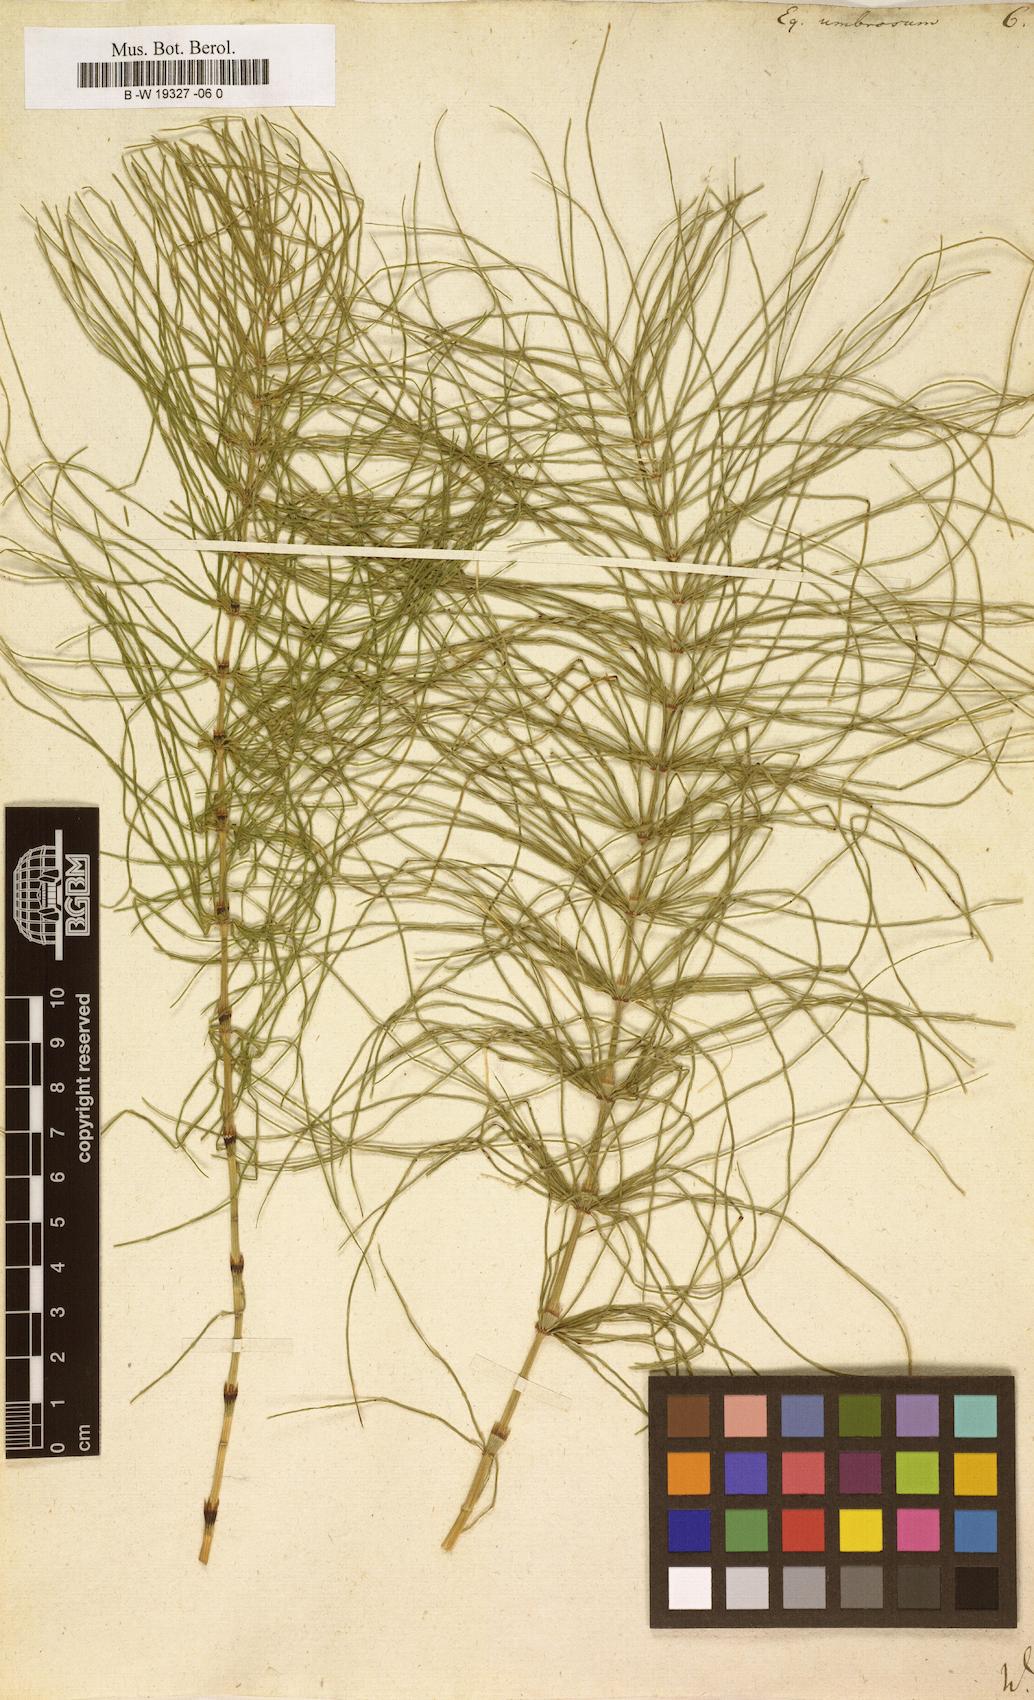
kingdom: Plantae
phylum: Tracheophyta
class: Polypodiopsida
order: Equisetales
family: Equisetaceae
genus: Equisetum
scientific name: Equisetum pratense
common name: Meadow horsetail
